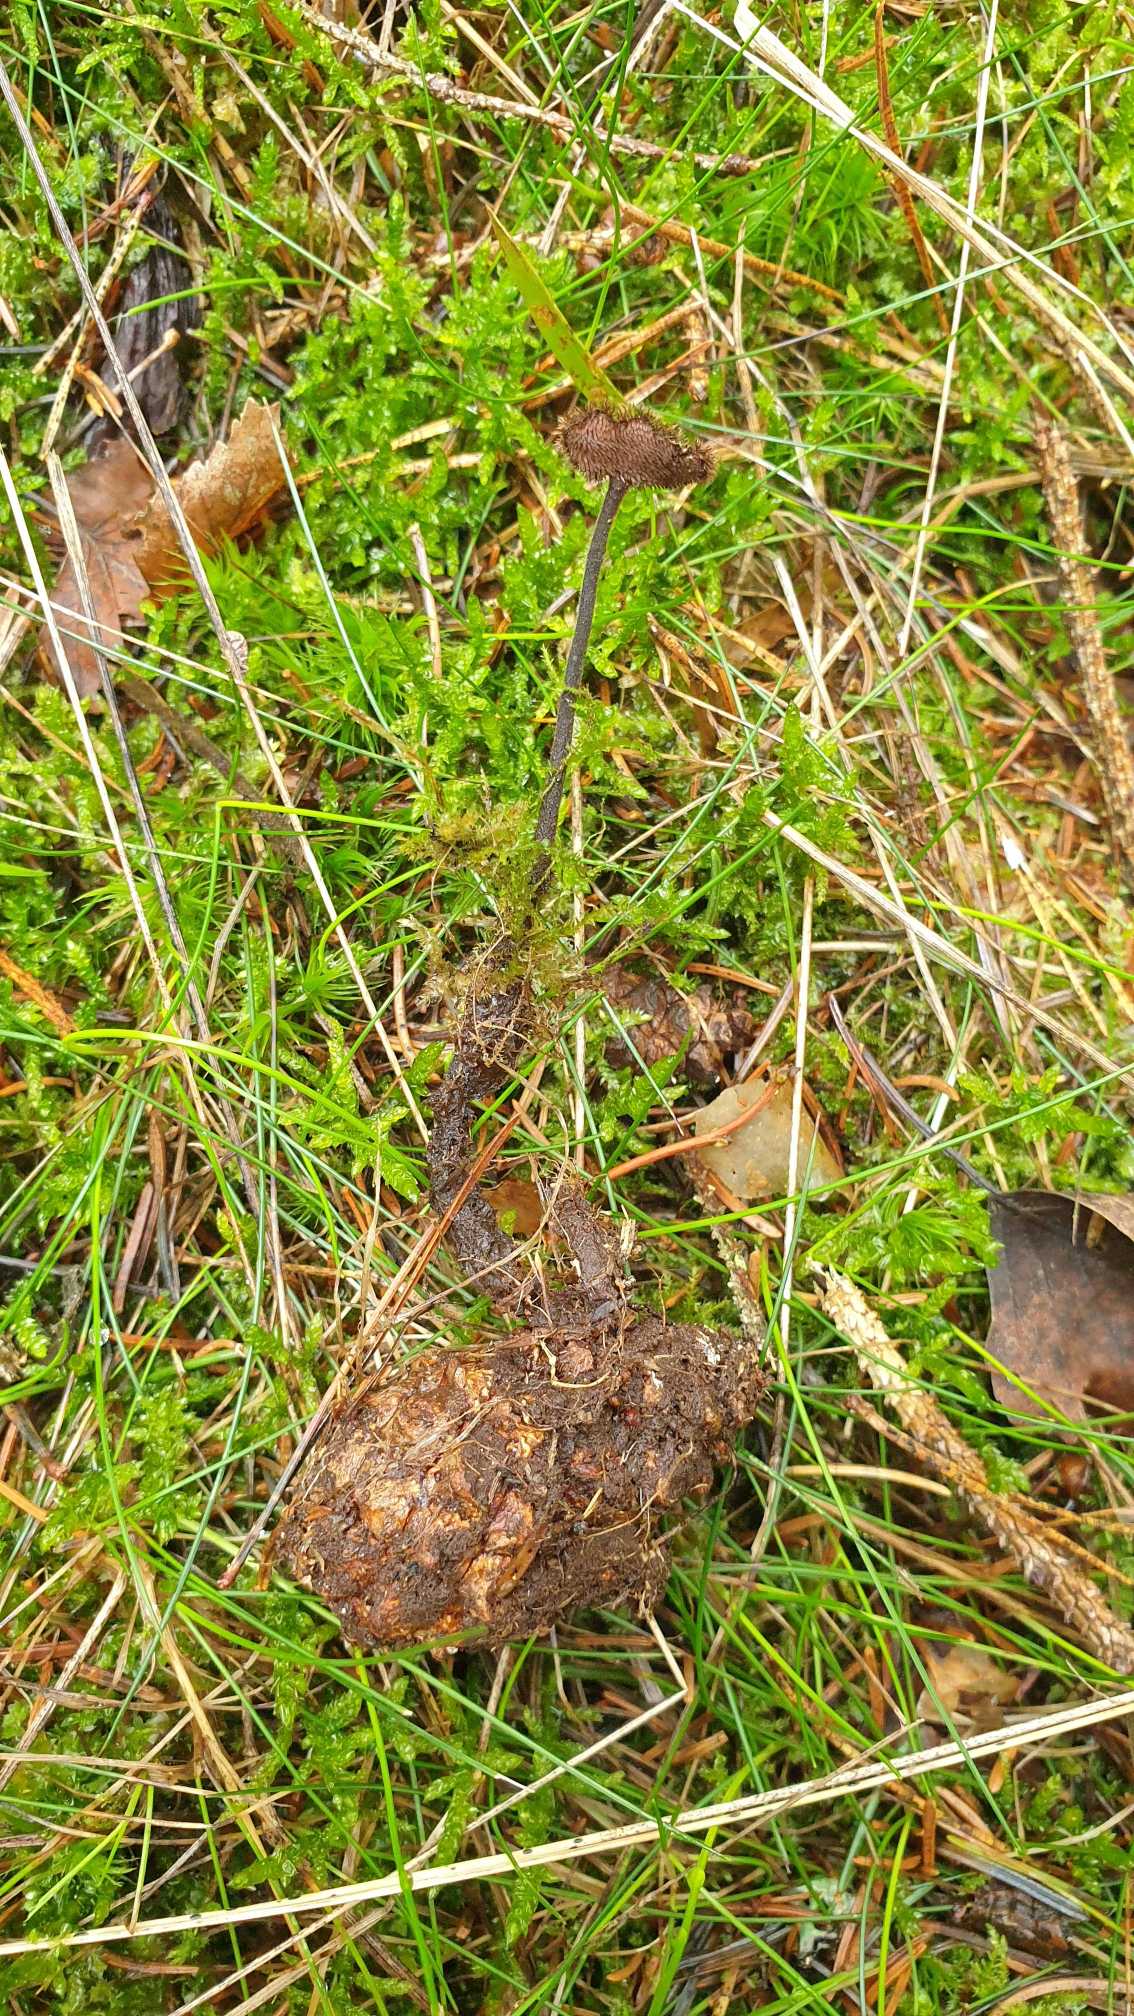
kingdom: Fungi
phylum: Basidiomycota
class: Agaricomycetes
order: Russulales
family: Auriscalpiaceae
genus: Auriscalpium
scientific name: Auriscalpium vulgare
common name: Koglepigsvamp
